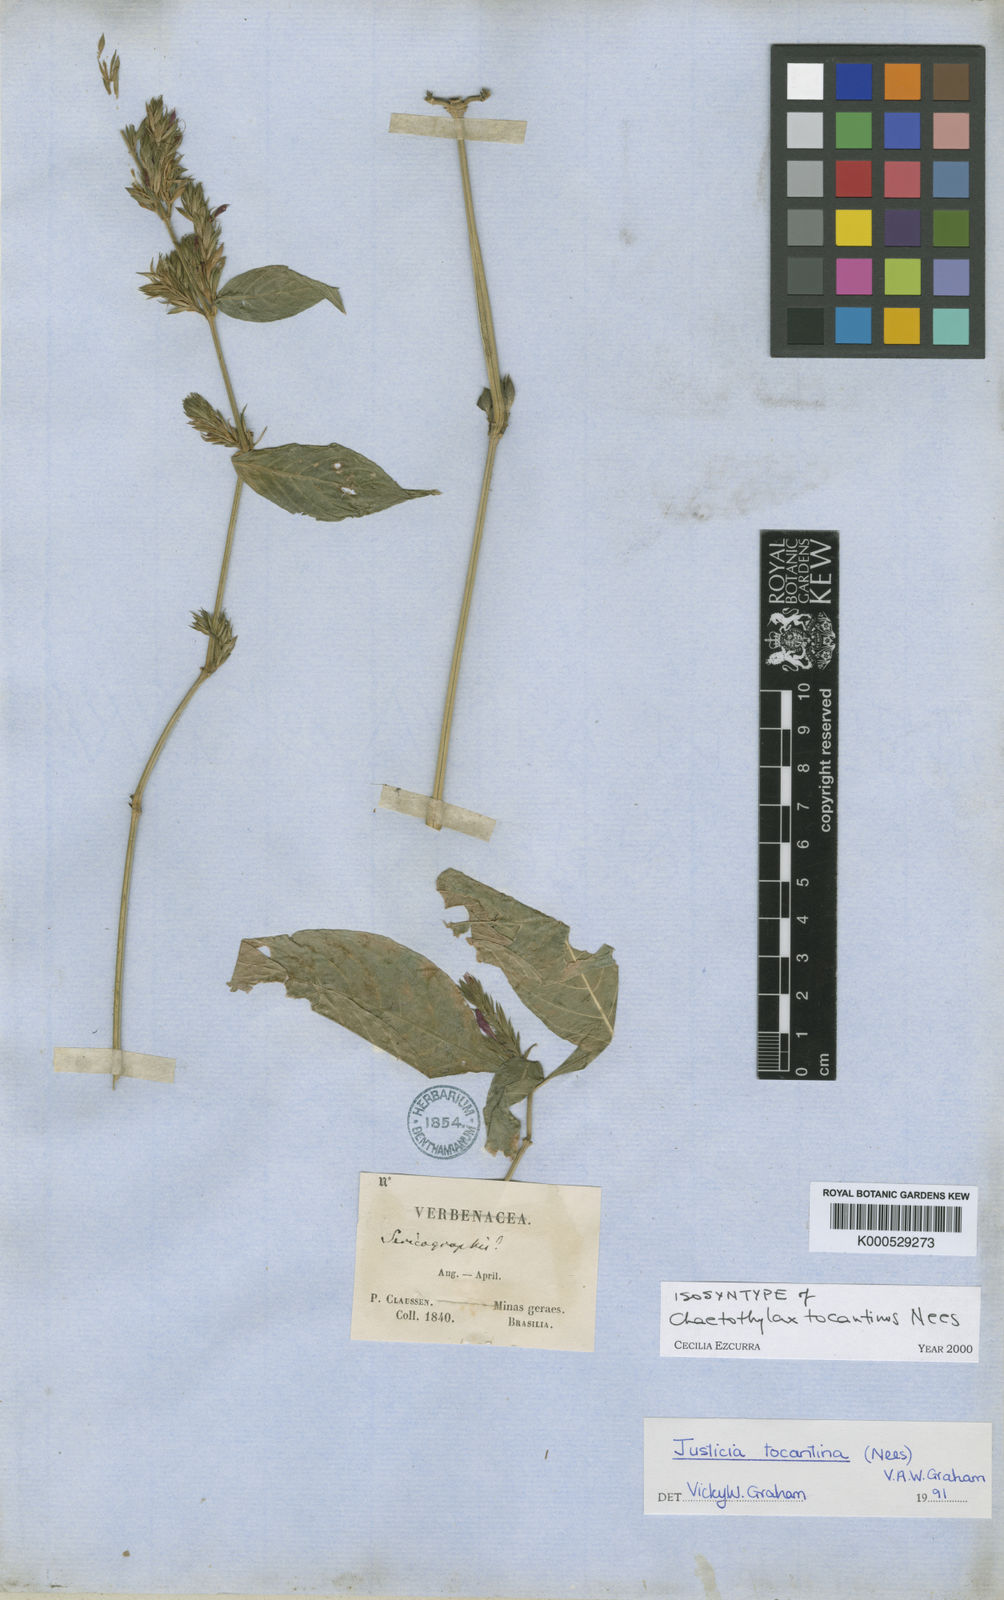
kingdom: Plantae
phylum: Tracheophyta
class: Magnoliopsida
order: Lamiales
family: Acanthaceae
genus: Justicia
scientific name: Justicia tocantina
